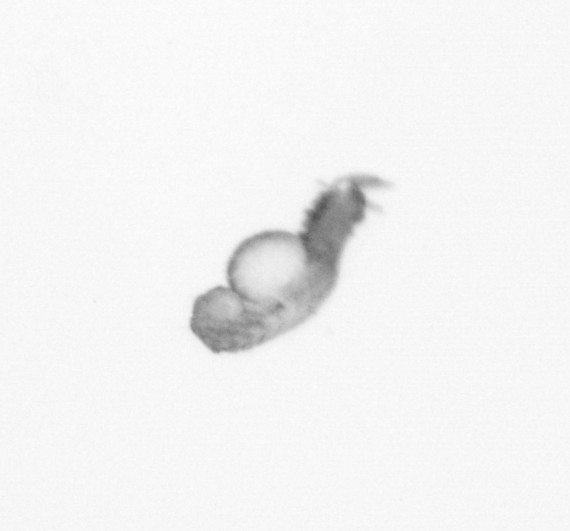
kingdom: Animalia
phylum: Annelida
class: Polychaeta
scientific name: Polychaeta
